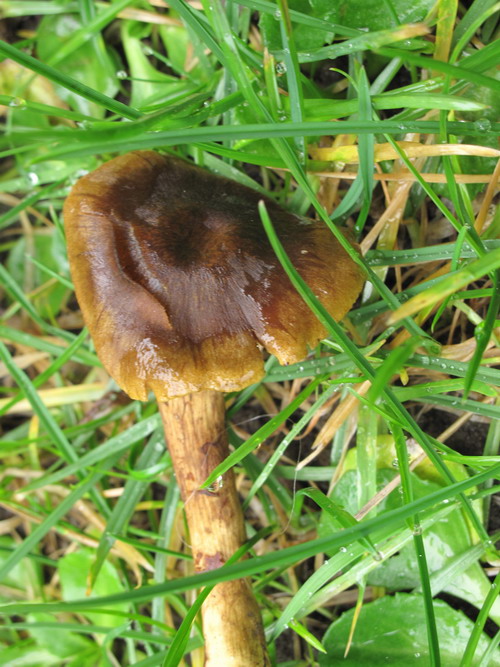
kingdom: Fungi
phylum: Basidiomycota
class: Agaricomycetes
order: Agaricales
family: Cortinariaceae
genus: Cortinarius
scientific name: Cortinarius olivaceofuscus
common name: olivenbrun slørhat
